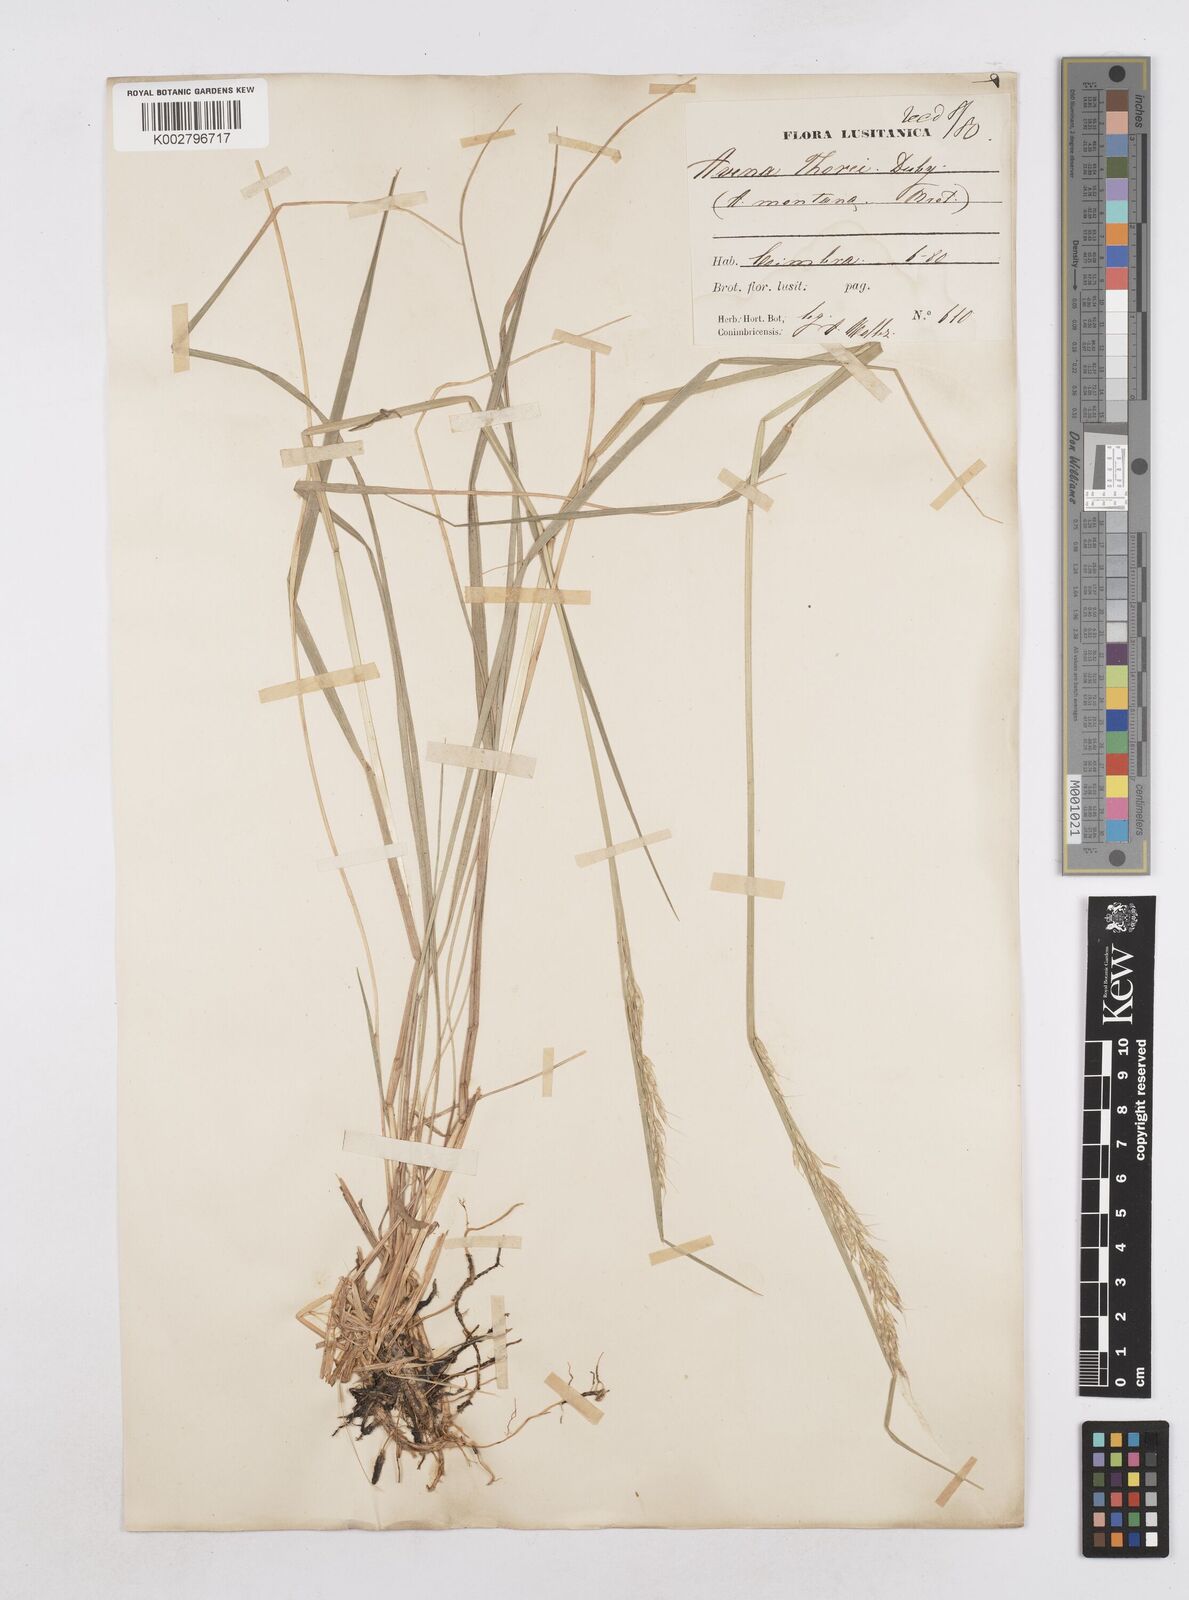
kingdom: Plantae
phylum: Tracheophyta
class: Liliopsida
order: Poales
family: Poaceae
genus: Arrhenatherum
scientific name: Arrhenatherum longifolium
